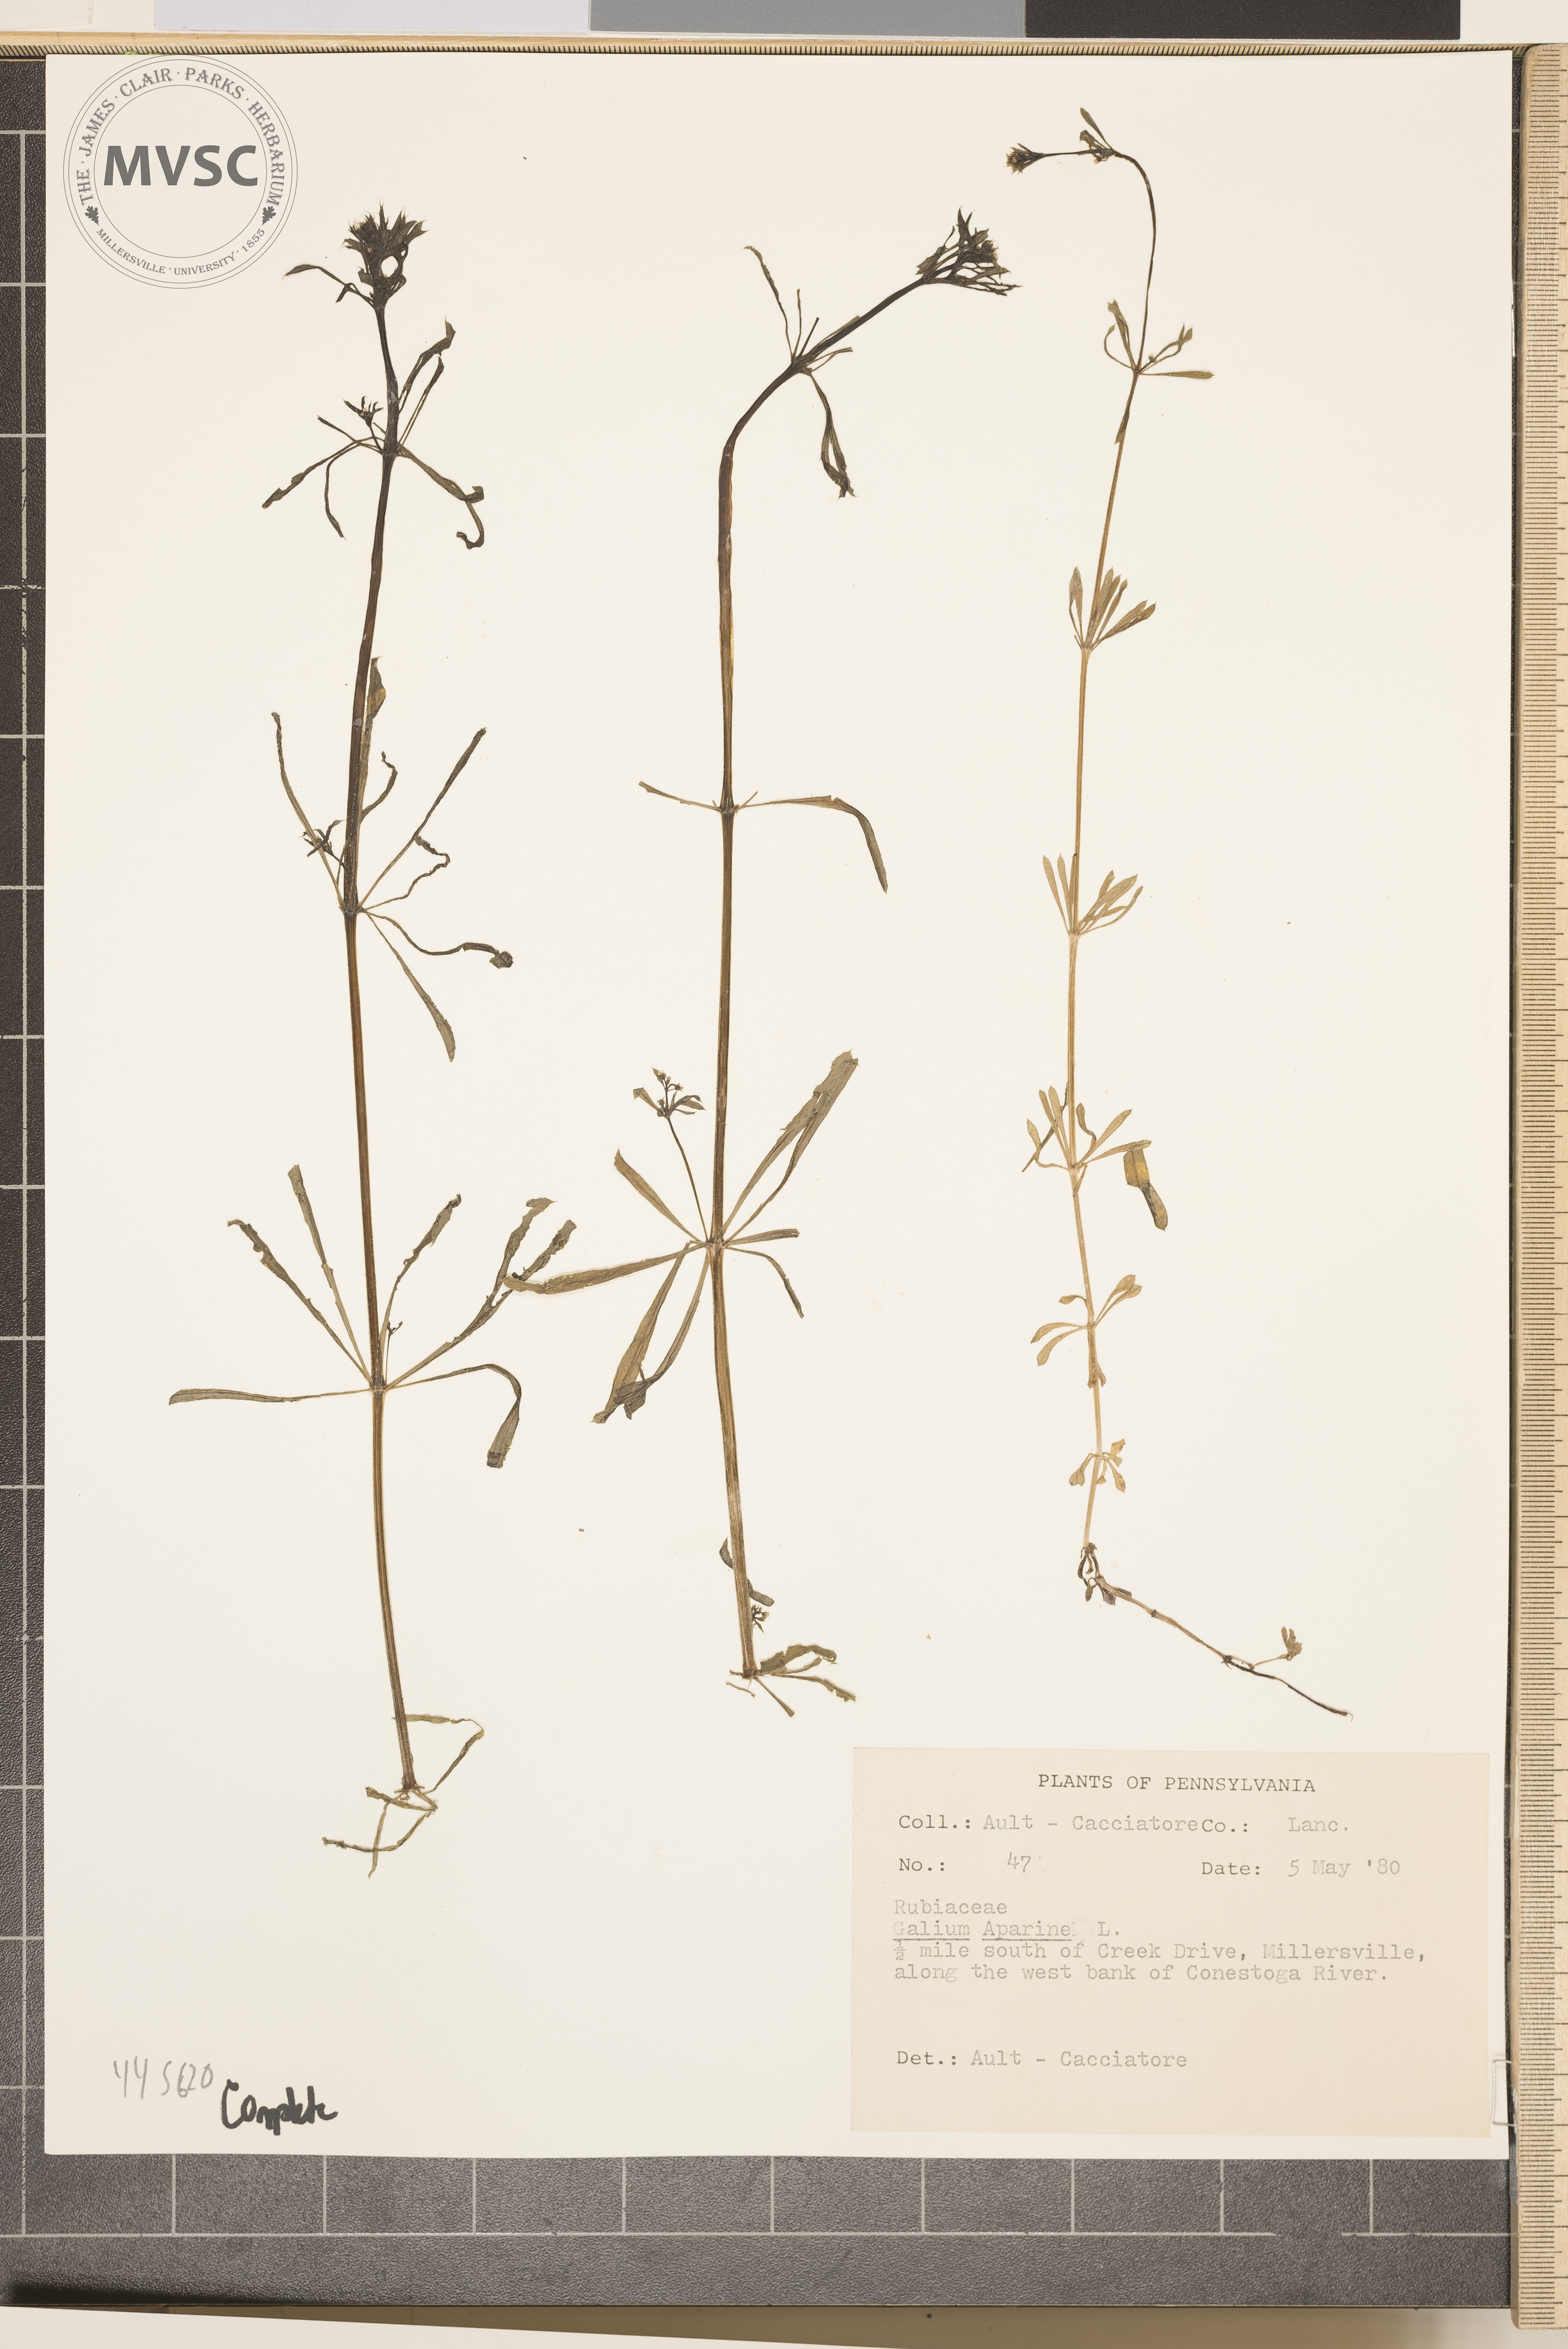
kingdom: Plantae
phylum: Tracheophyta
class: Magnoliopsida
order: Gentianales
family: Rubiaceae
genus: Galium
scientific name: Galium aparine
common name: Cleavers
